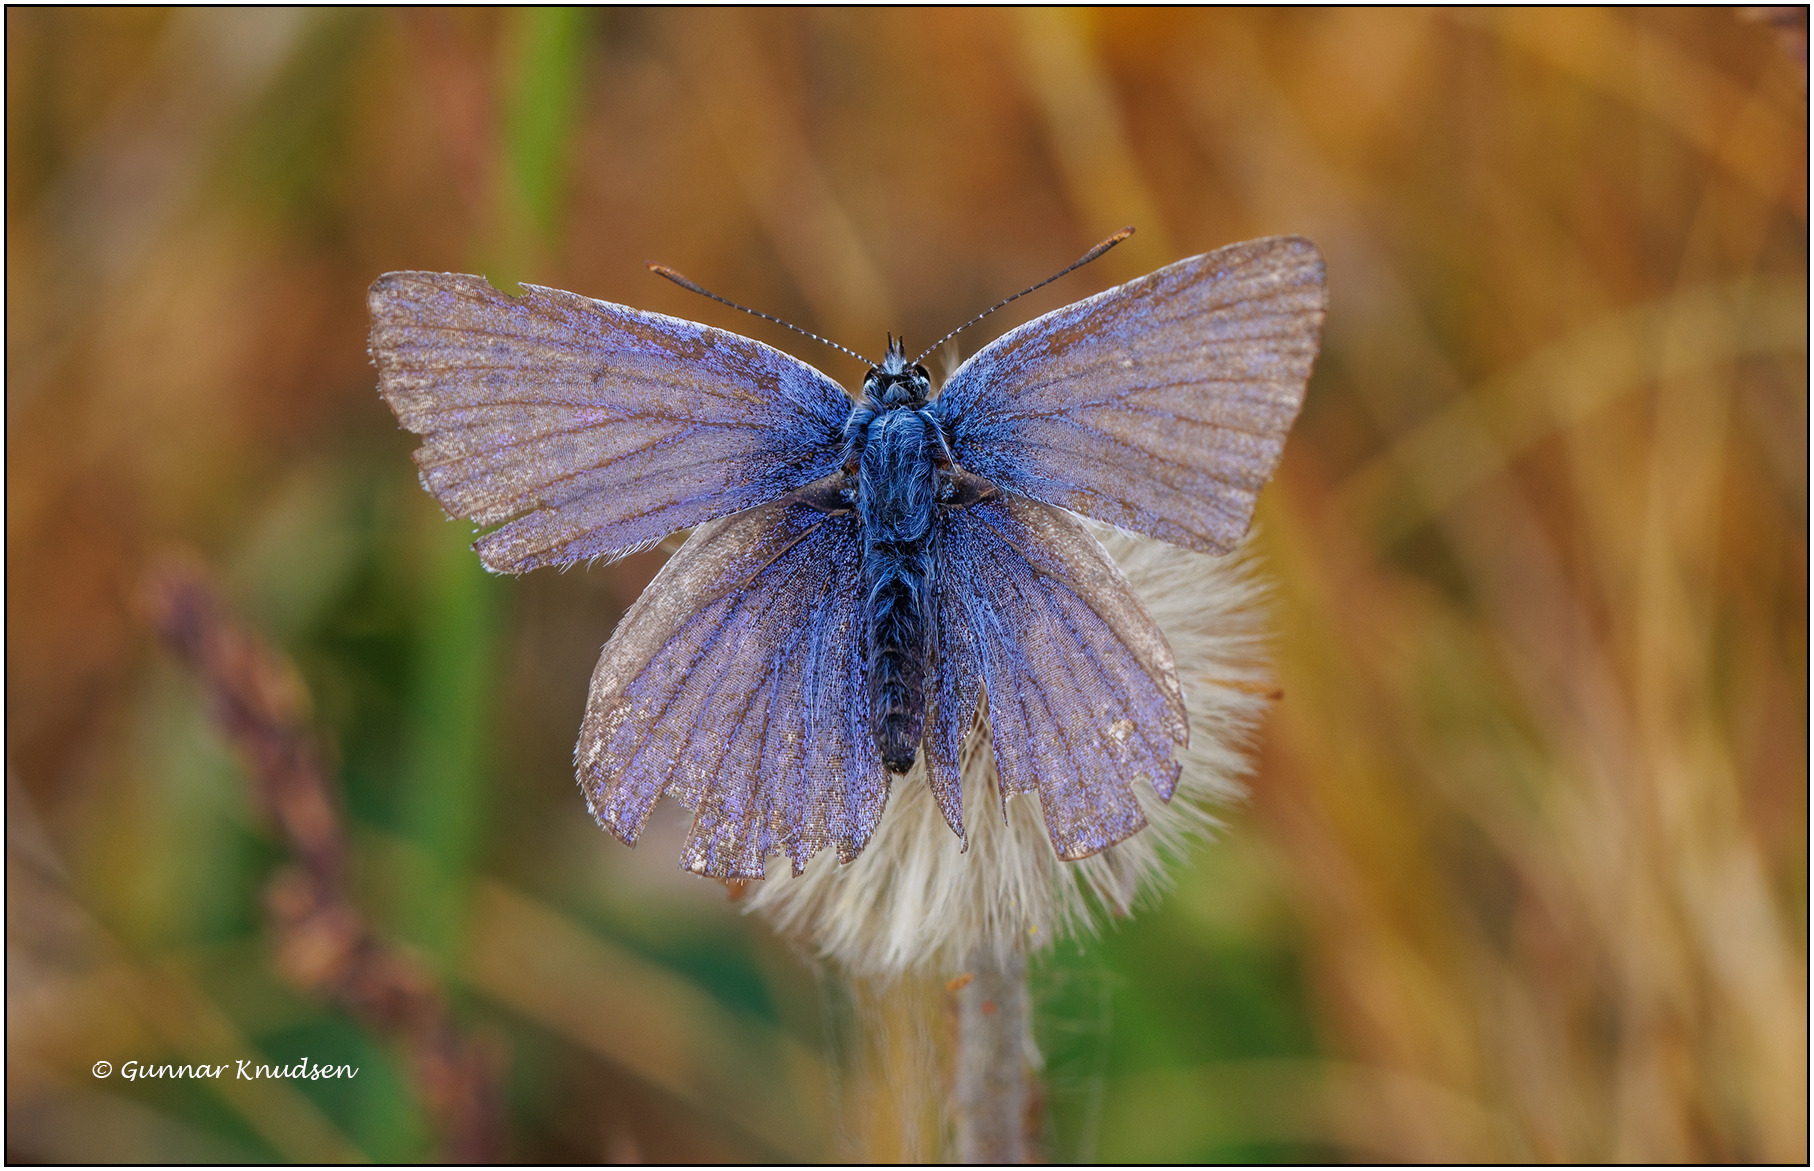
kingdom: Animalia
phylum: Arthropoda
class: Insecta
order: Lepidoptera
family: Lycaenidae
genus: Polyommatus
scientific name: Polyommatus icarus
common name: Almindelig blåfugl
